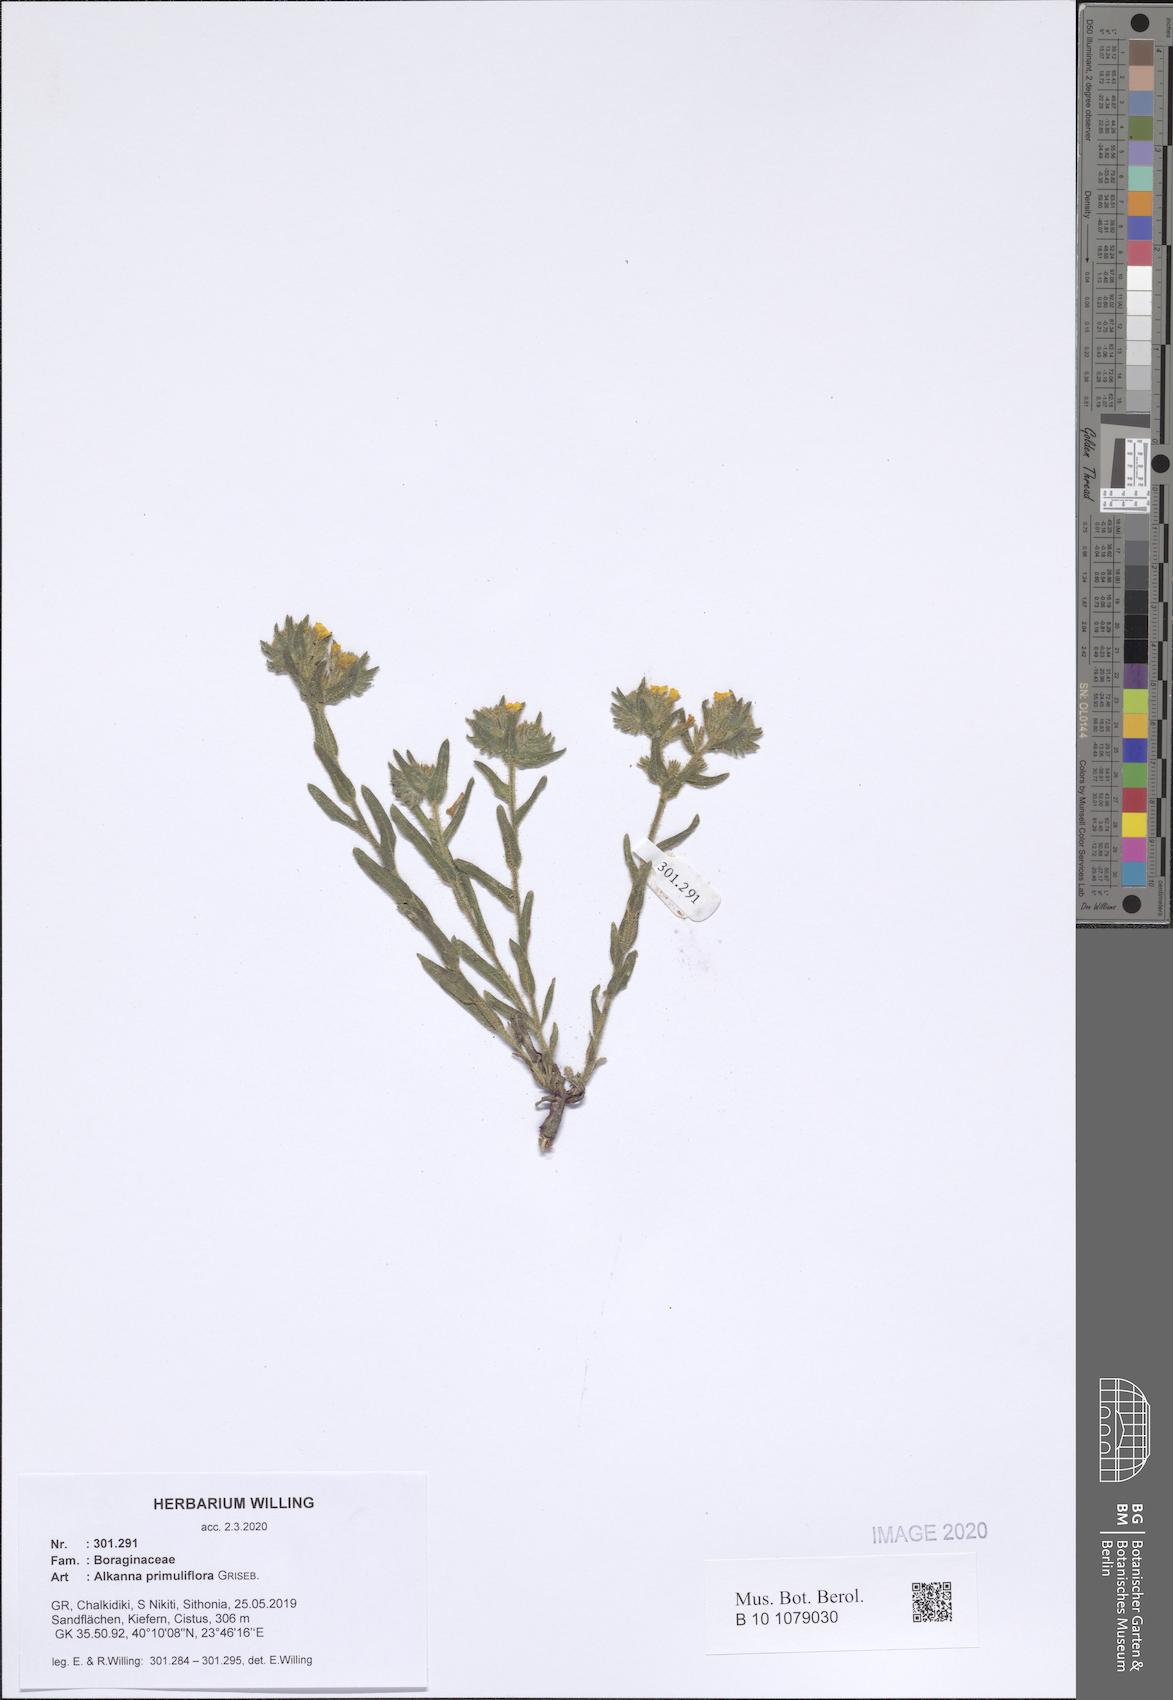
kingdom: Plantae
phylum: Tracheophyta
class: Magnoliopsida
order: Boraginales
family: Boraginaceae
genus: Alkanna
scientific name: Alkanna primuliflora
